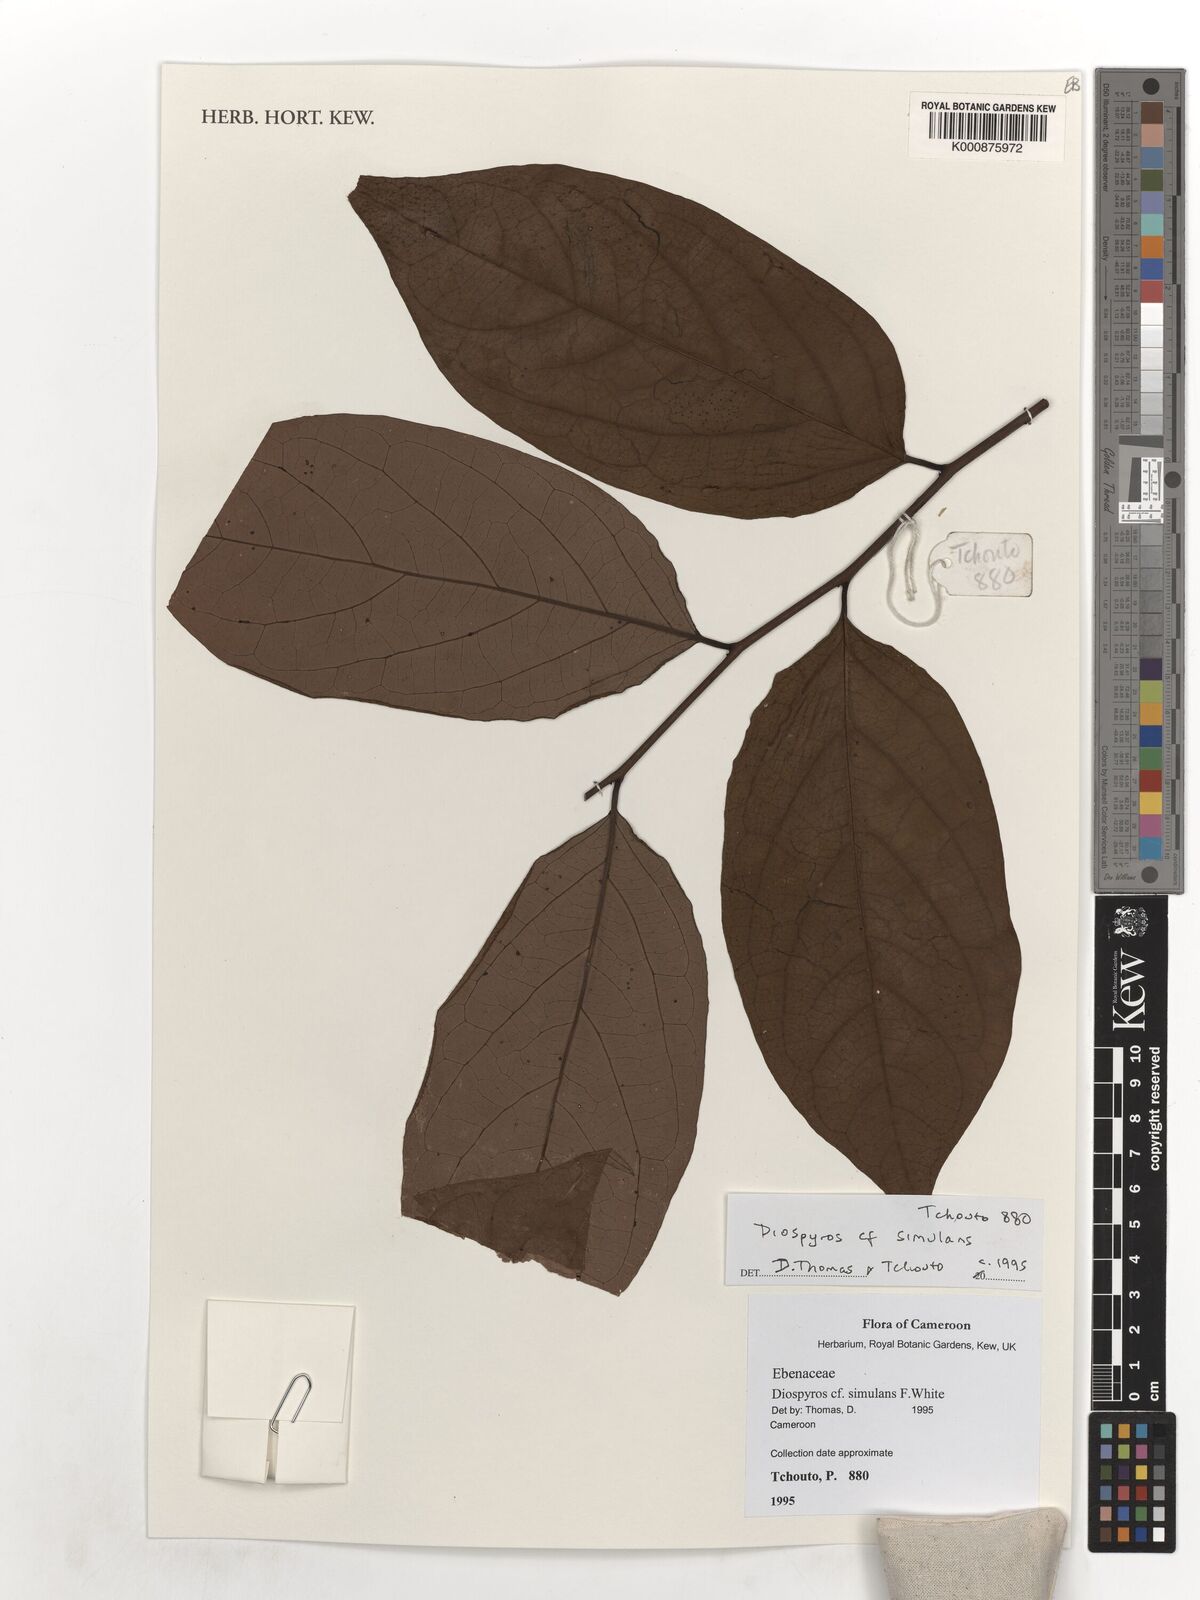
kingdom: Plantae
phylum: Tracheophyta
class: Magnoliopsida
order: Ericales
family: Ebenaceae
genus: Diospyros
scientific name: Diospyros cinnabarina
